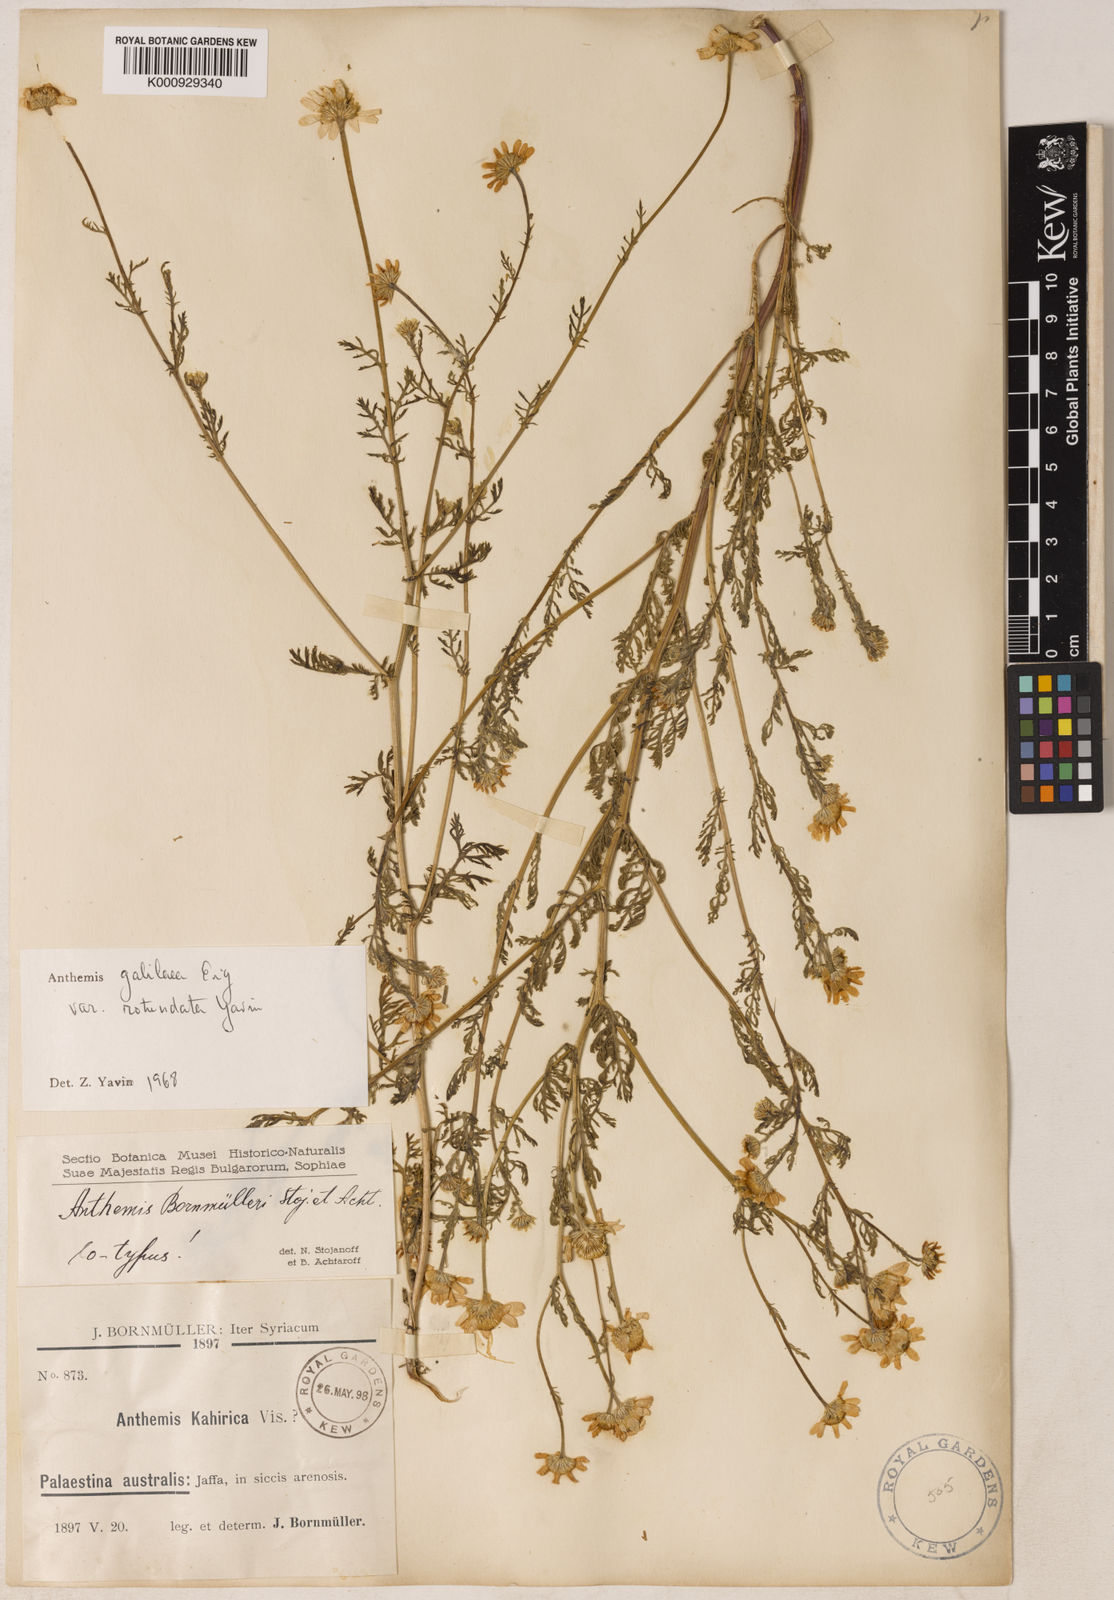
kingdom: Plantae
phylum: Tracheophyta
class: Magnoliopsida
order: Asterales
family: Asteraceae
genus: Anthemis
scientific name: Anthemis bornmuelleri
